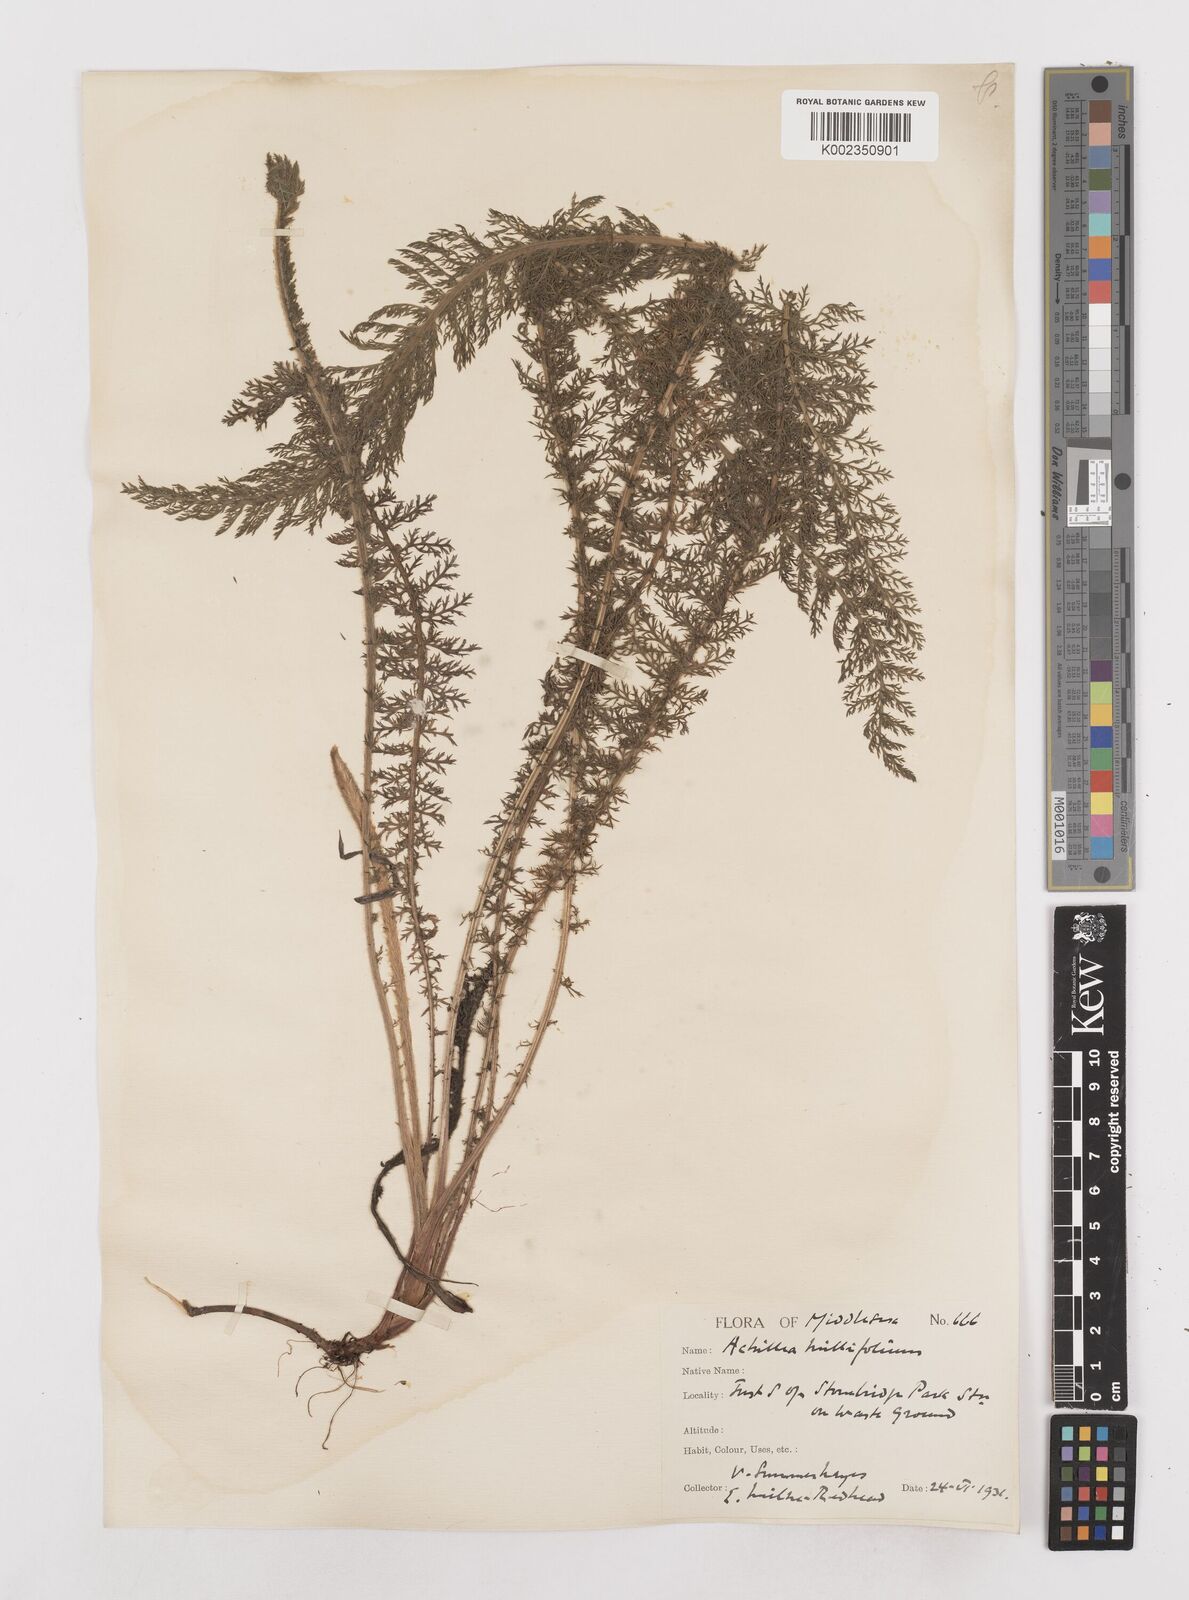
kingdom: Plantae
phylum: Tracheophyta
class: Magnoliopsida
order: Asterales
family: Asteraceae
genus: Achillea
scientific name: Achillea millefolium
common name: Yarrow
